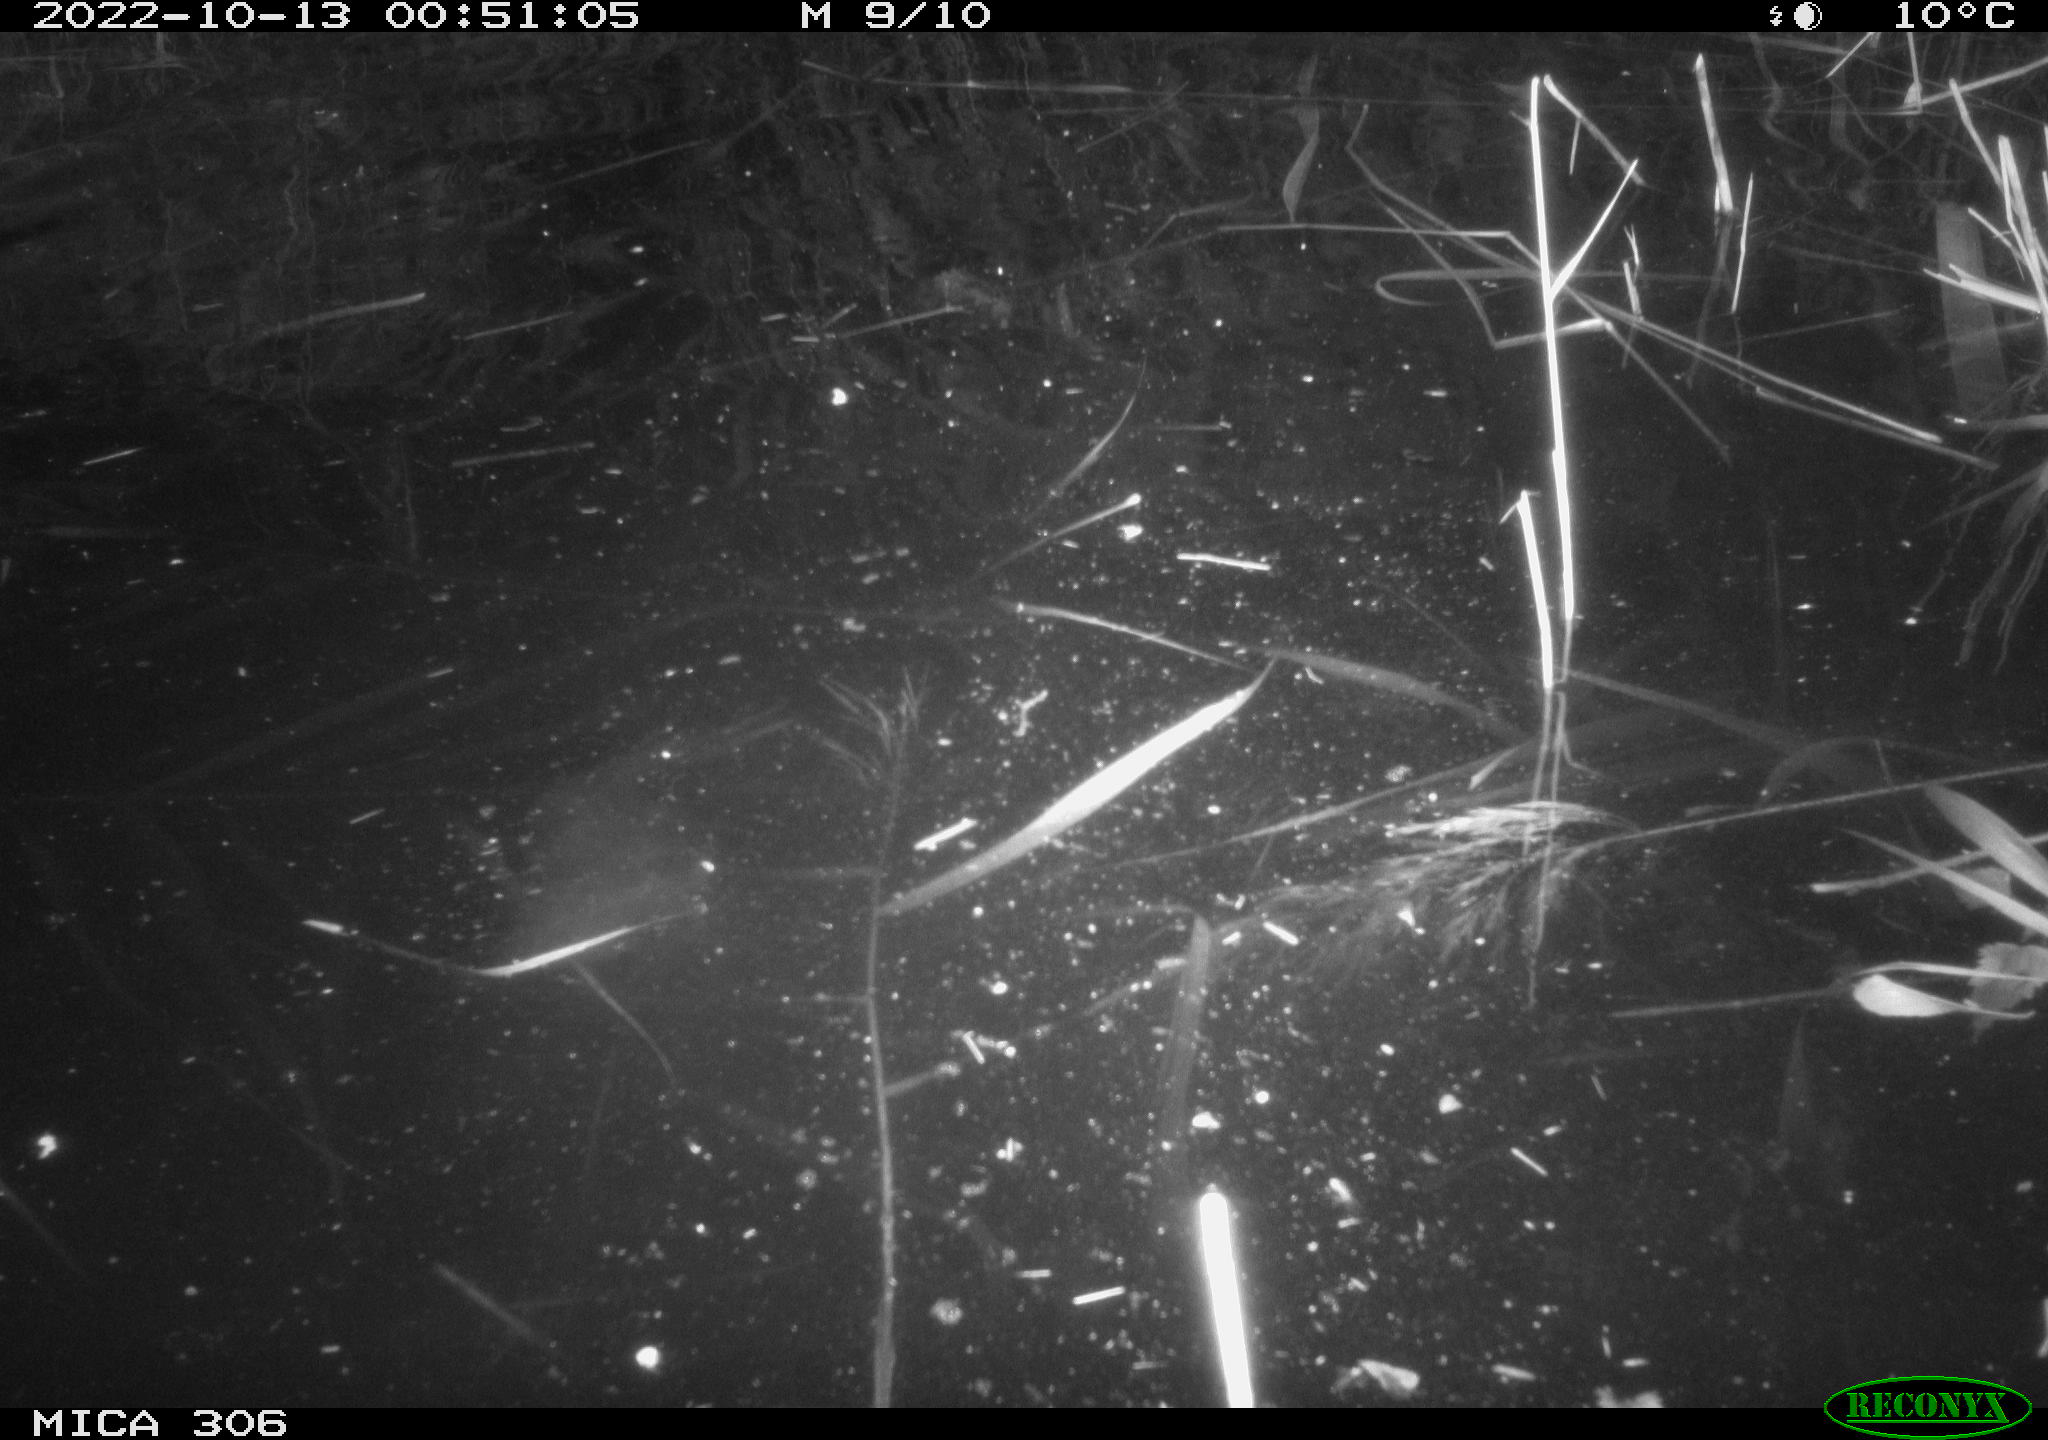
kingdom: Animalia
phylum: Chordata
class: Mammalia
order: Rodentia
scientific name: Rodentia
